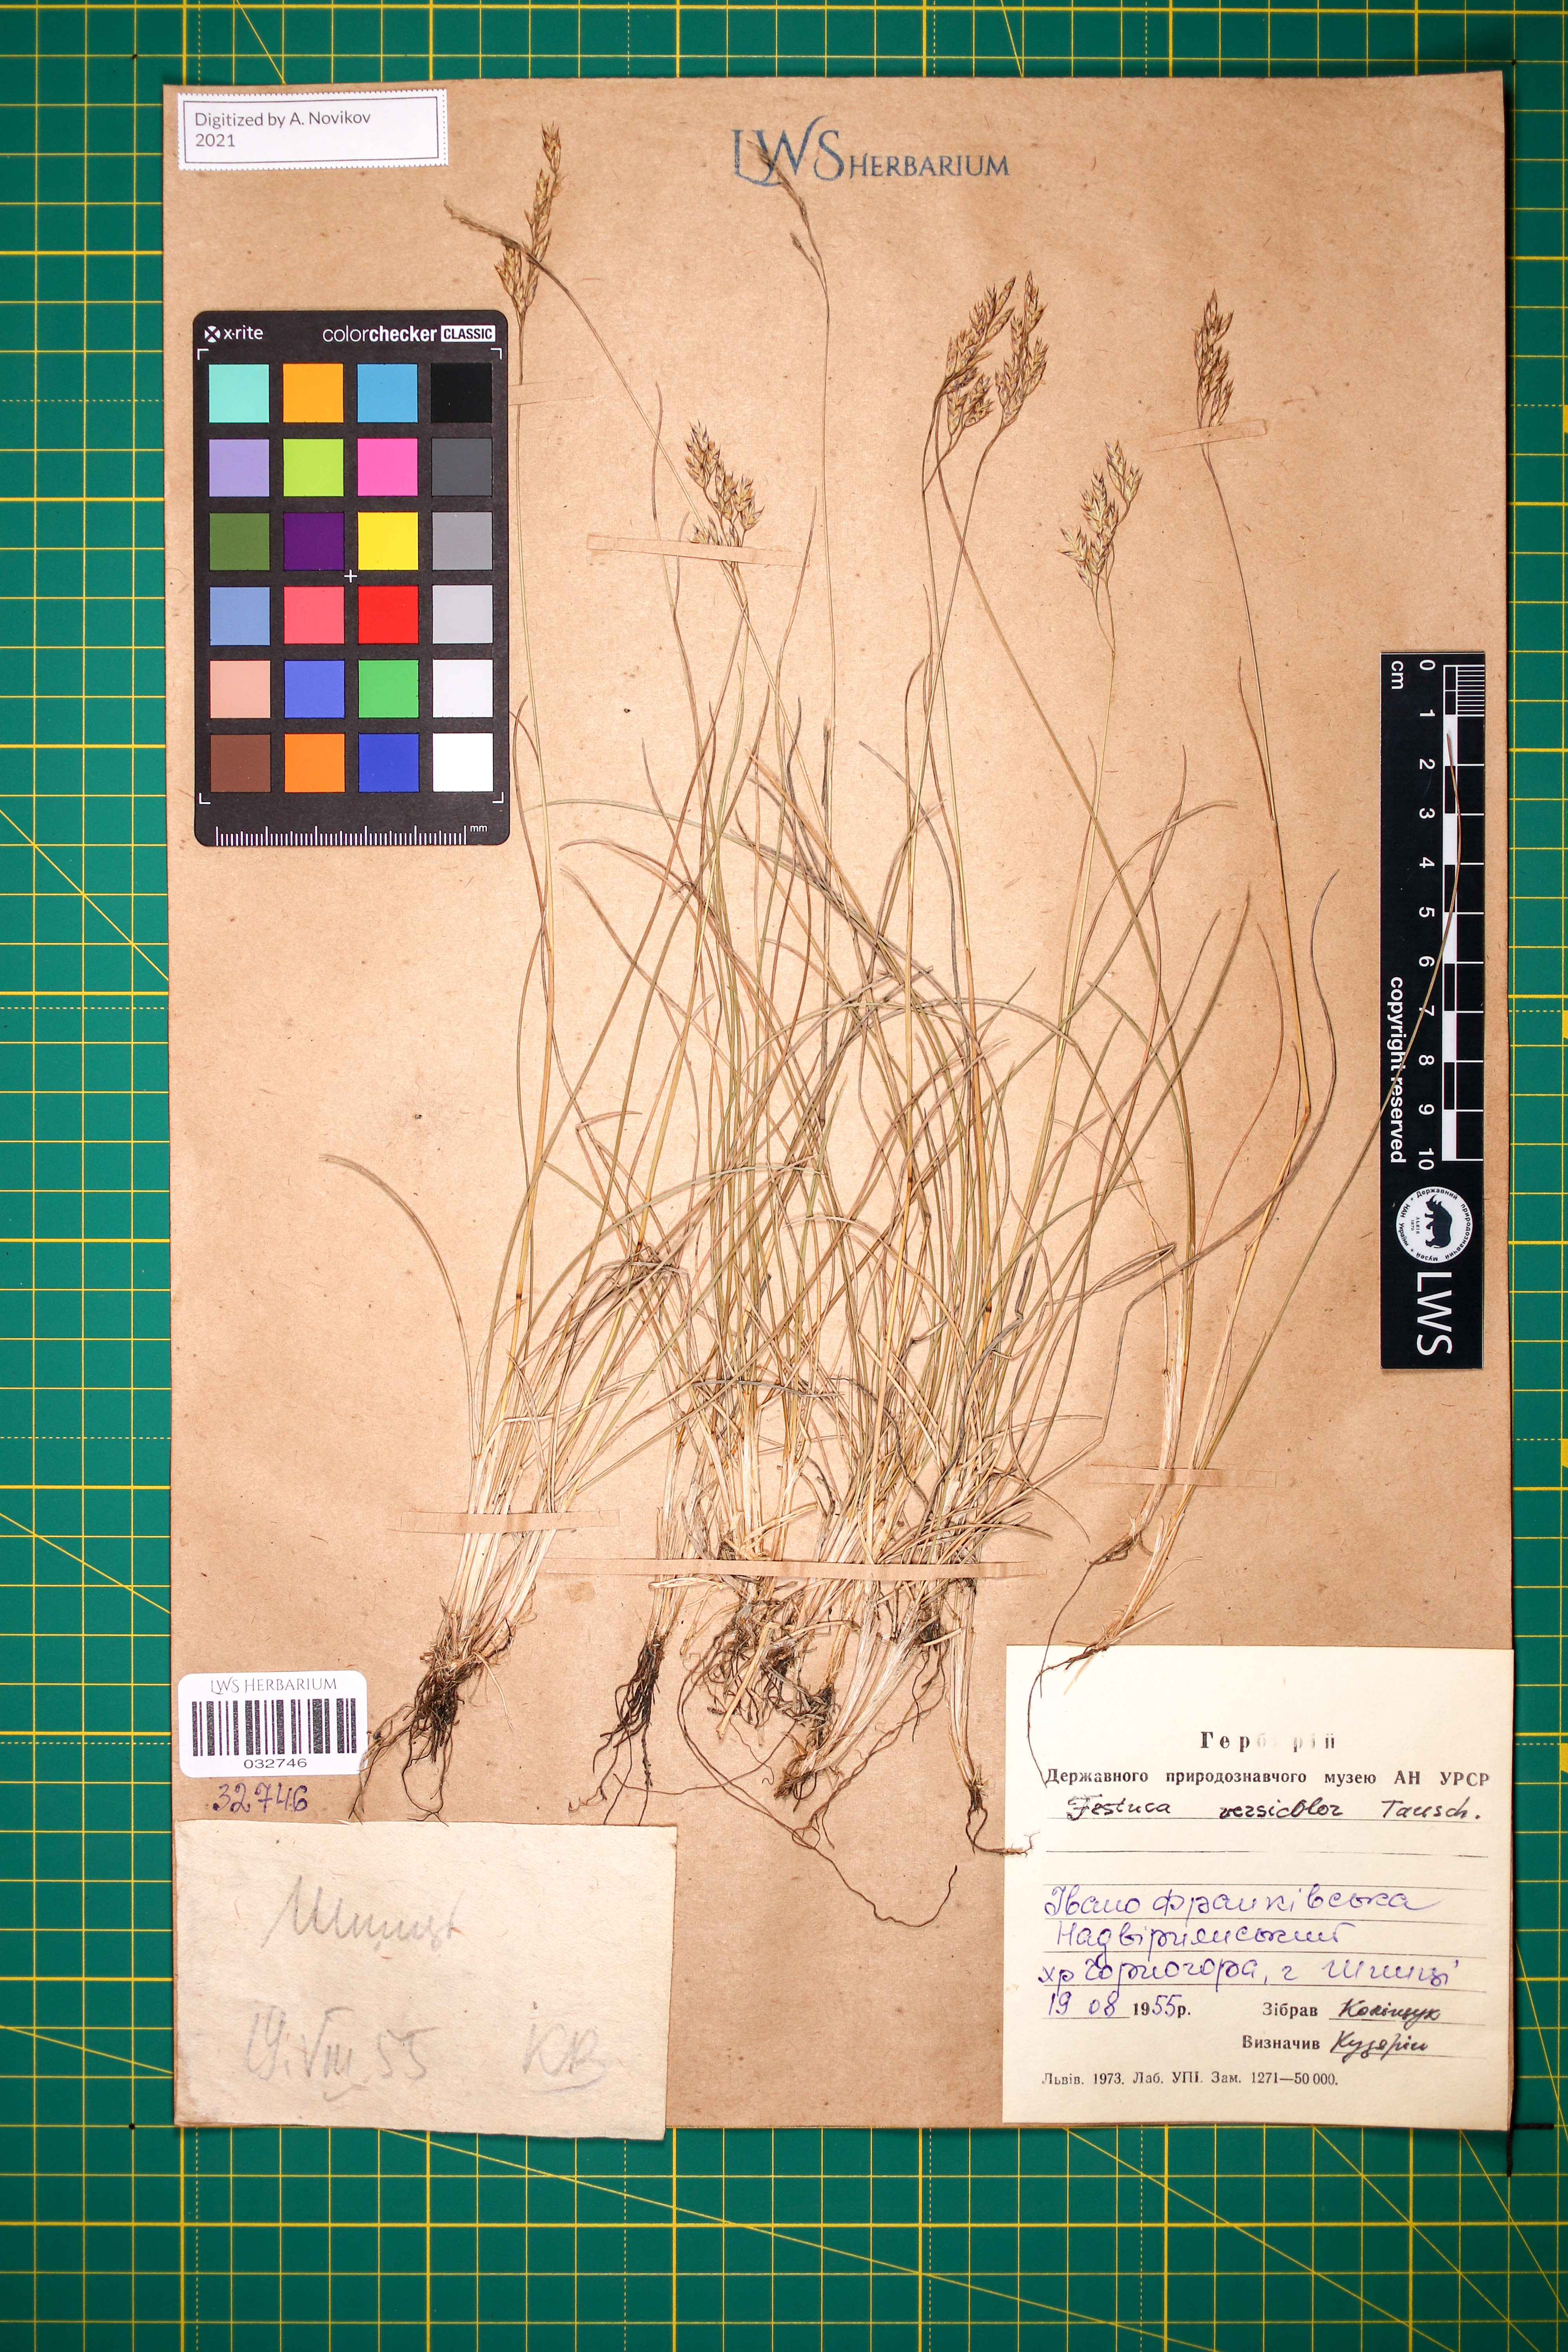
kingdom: Plantae
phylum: Tracheophyta
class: Liliopsida
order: Poales
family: Poaceae
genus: Festuca
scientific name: Festuca versicolor
